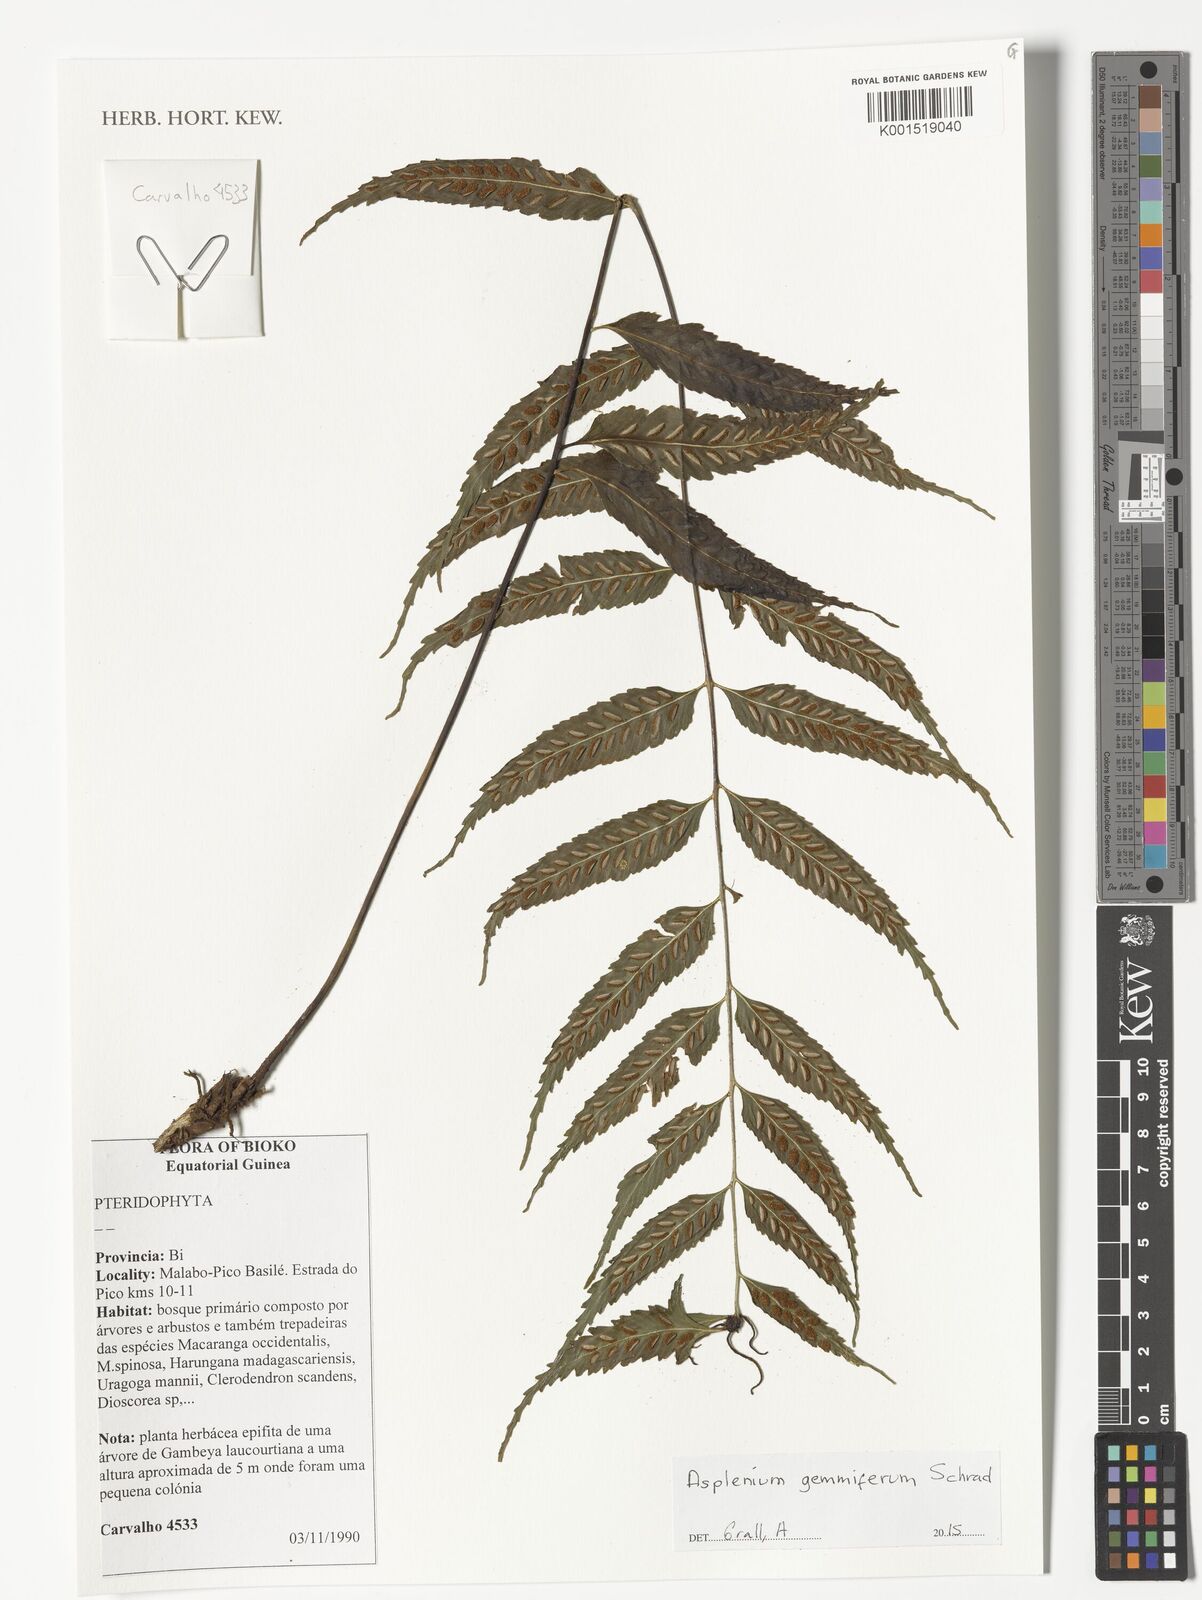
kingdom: Plantae
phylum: Tracheophyta
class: Polypodiopsida
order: Polypodiales
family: Aspleniaceae
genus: Asplenium
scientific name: Asplenium gemmiferum
